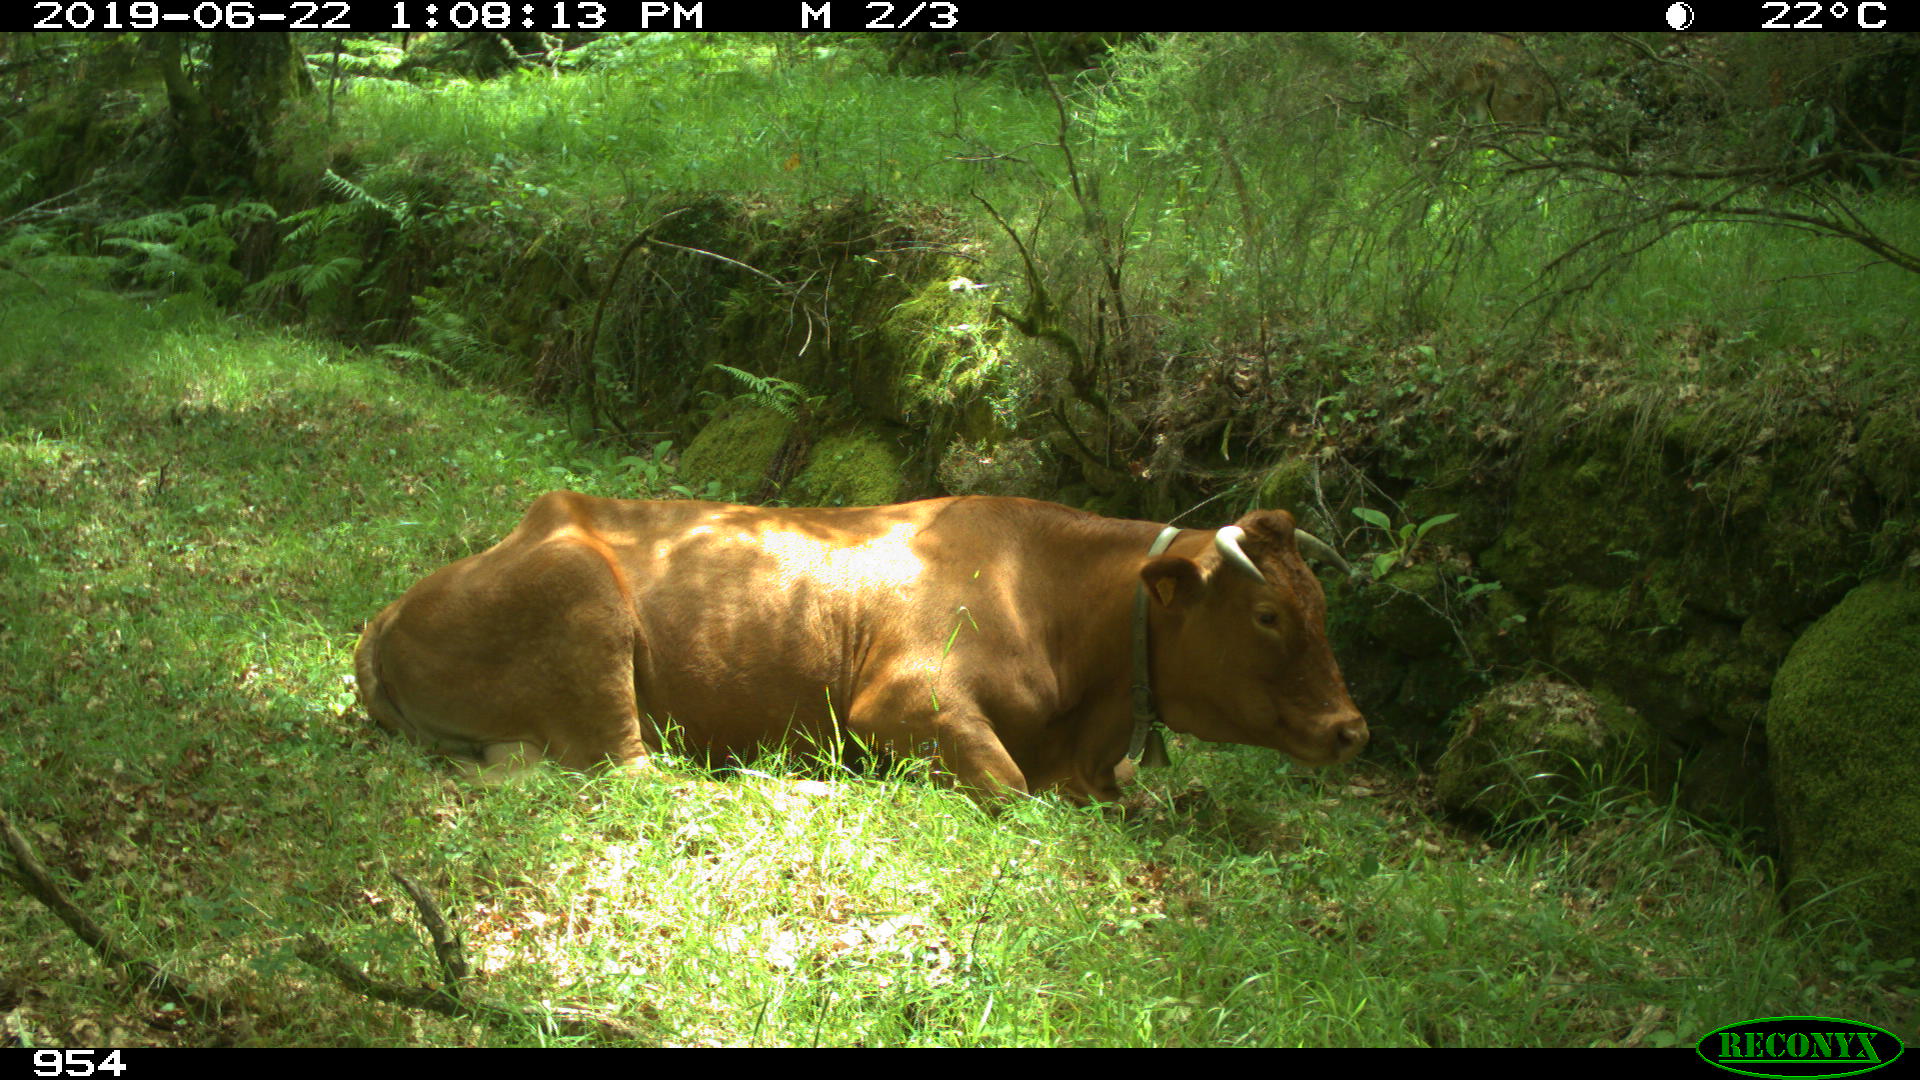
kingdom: Animalia
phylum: Chordata
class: Mammalia
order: Artiodactyla
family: Bovidae
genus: Bos
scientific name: Bos taurus
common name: Domesticated cattle
